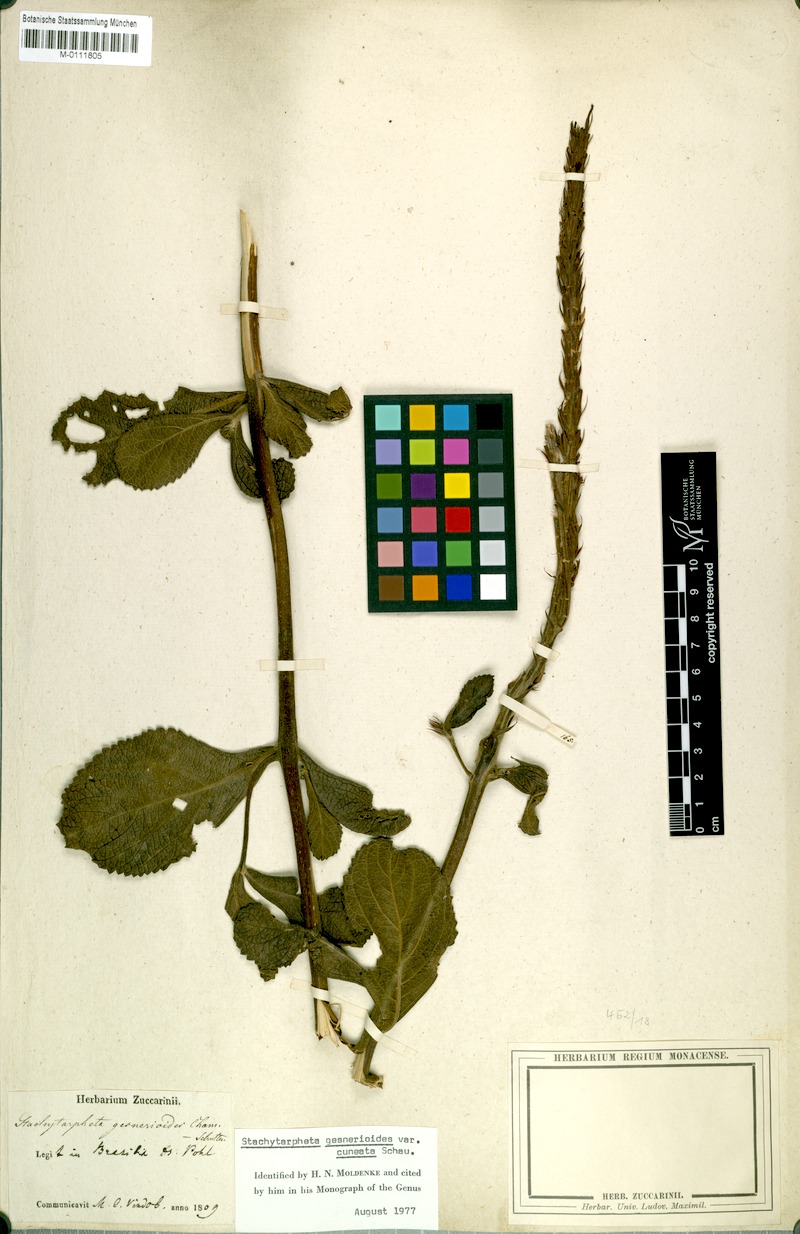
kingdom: Plantae
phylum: Tracheophyta
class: Magnoliopsida
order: Lamiales
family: Verbenaceae
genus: Stachytarpheta
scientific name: Stachytarpheta gesnerioides
